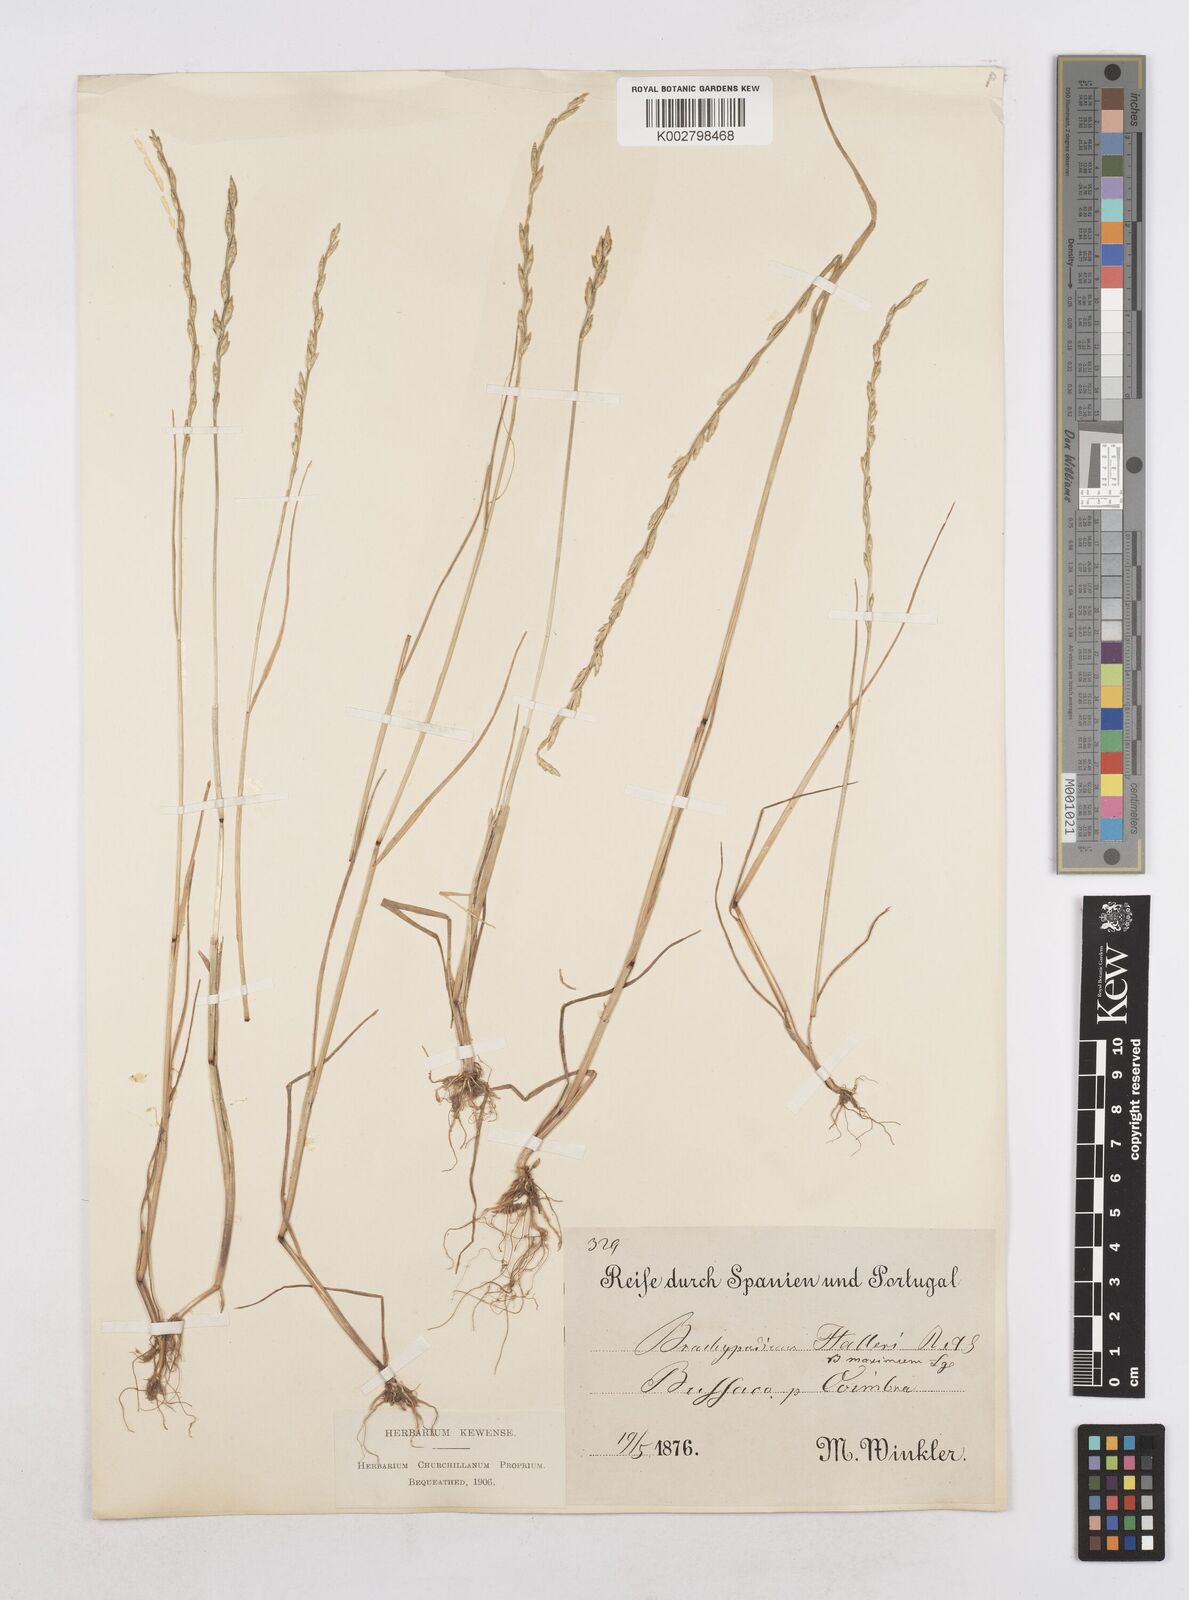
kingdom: Plantae
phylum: Tracheophyta
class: Liliopsida
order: Poales
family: Poaceae
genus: Festuca
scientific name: Festuca lachenalii
